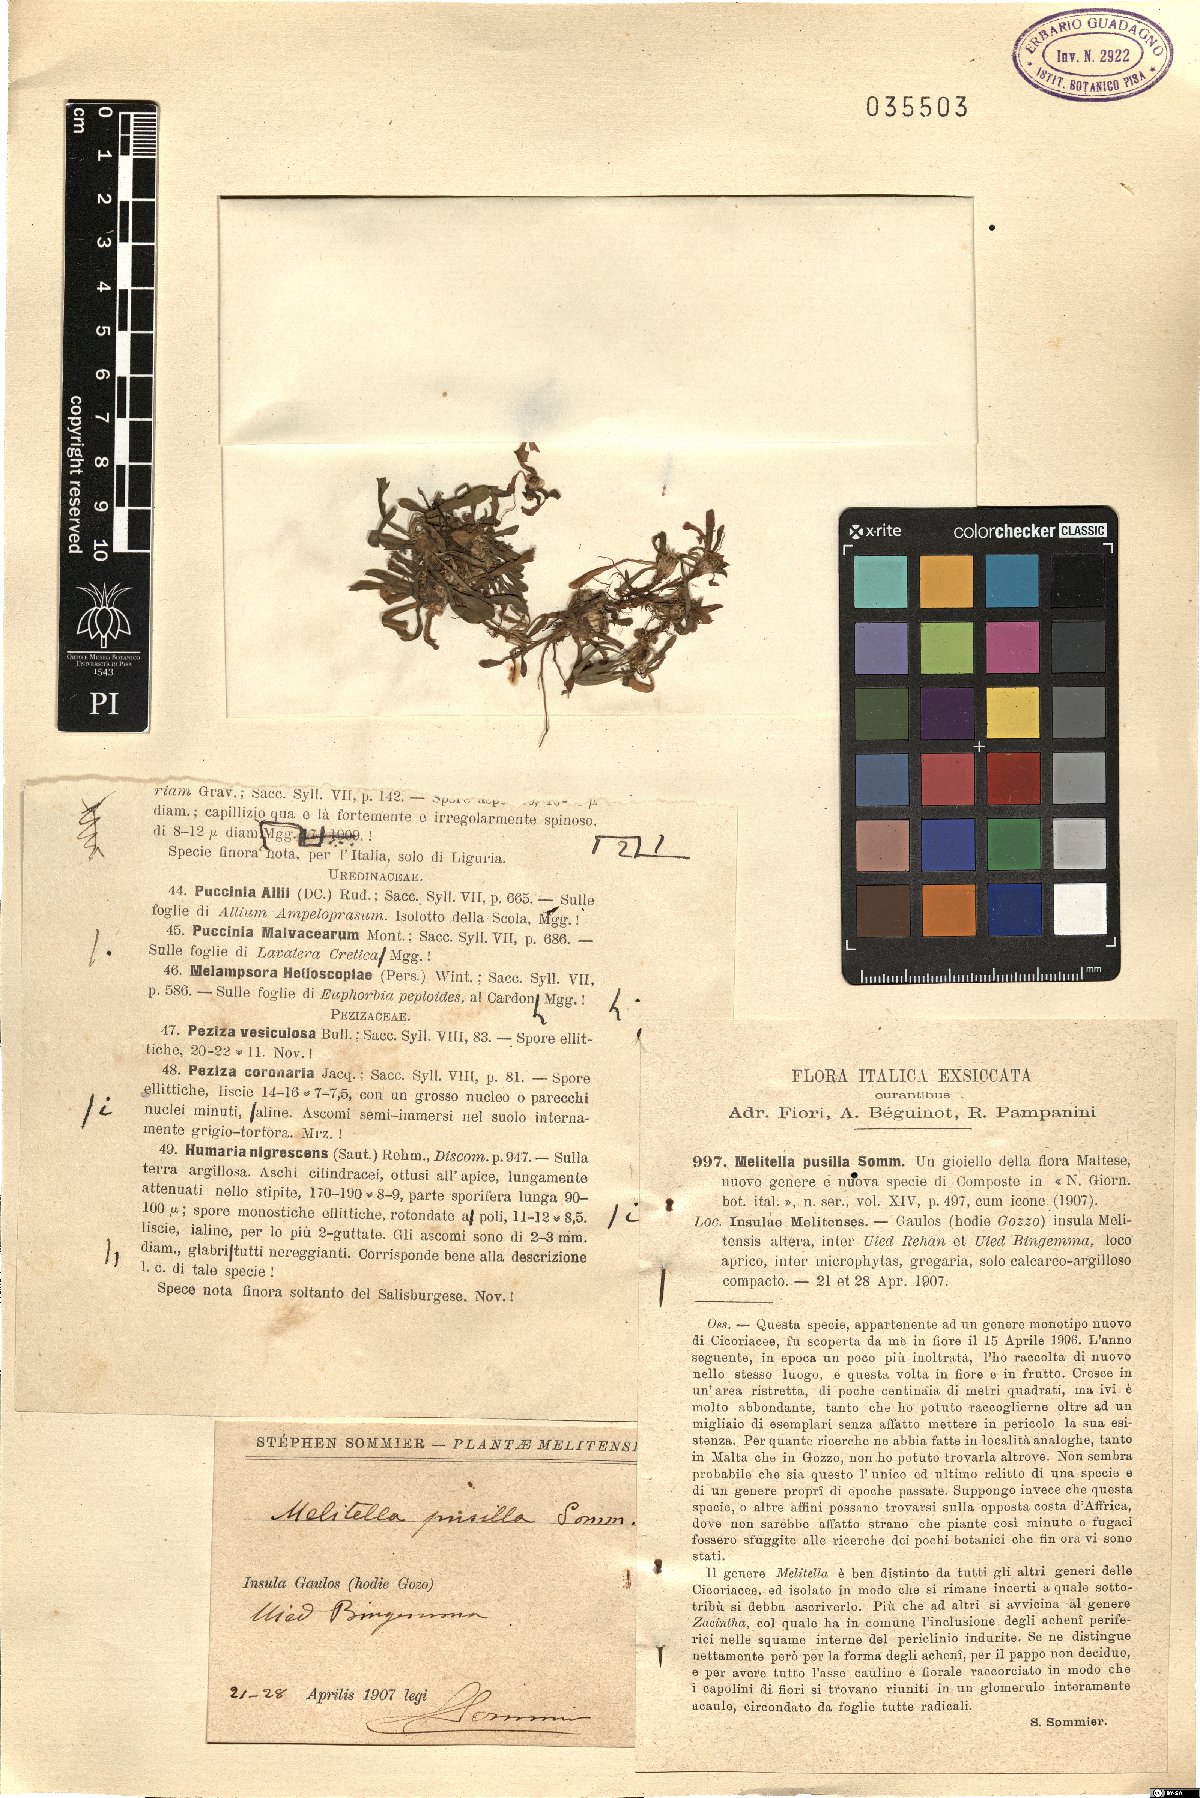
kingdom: Plantae
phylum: Tracheophyta
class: Magnoliopsida
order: Asterales
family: Asteraceae
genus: Crepis
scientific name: Crepis pusilla
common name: Dandelion crepis
